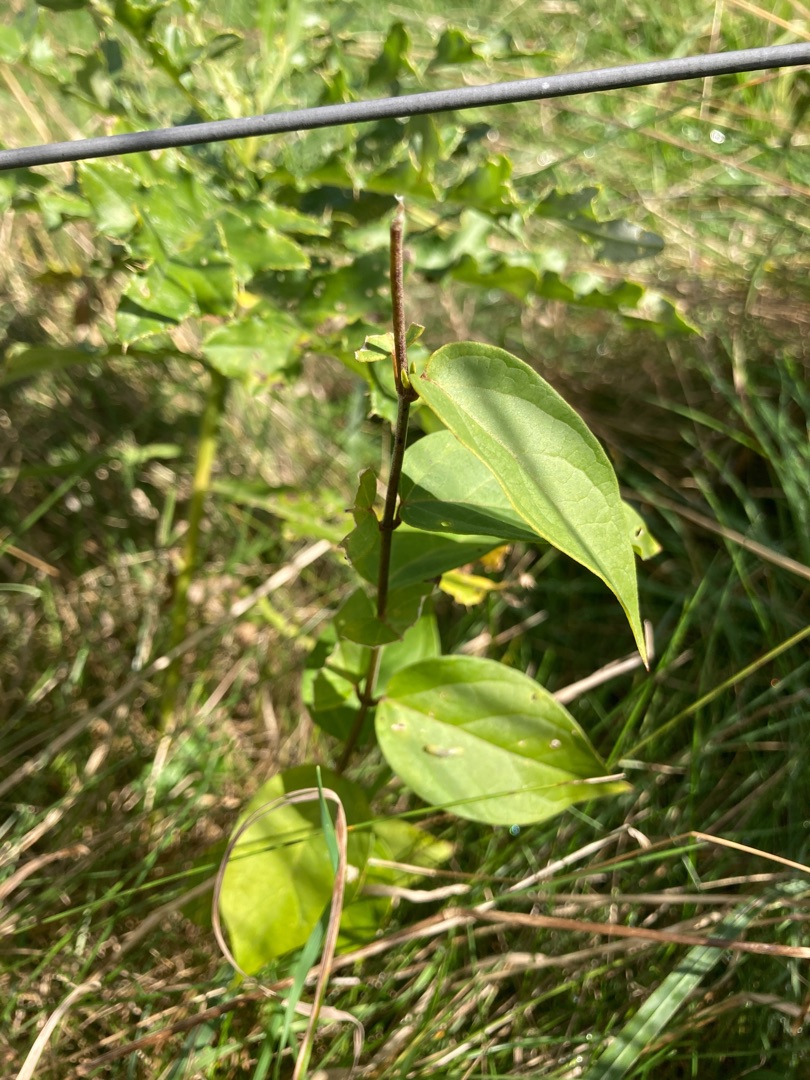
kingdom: Plantae
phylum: Tracheophyta
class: Magnoliopsida
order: Gentianales
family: Apocynaceae
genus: Vincetoxicum
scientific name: Vincetoxicum hirundinaria
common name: Svalerod
